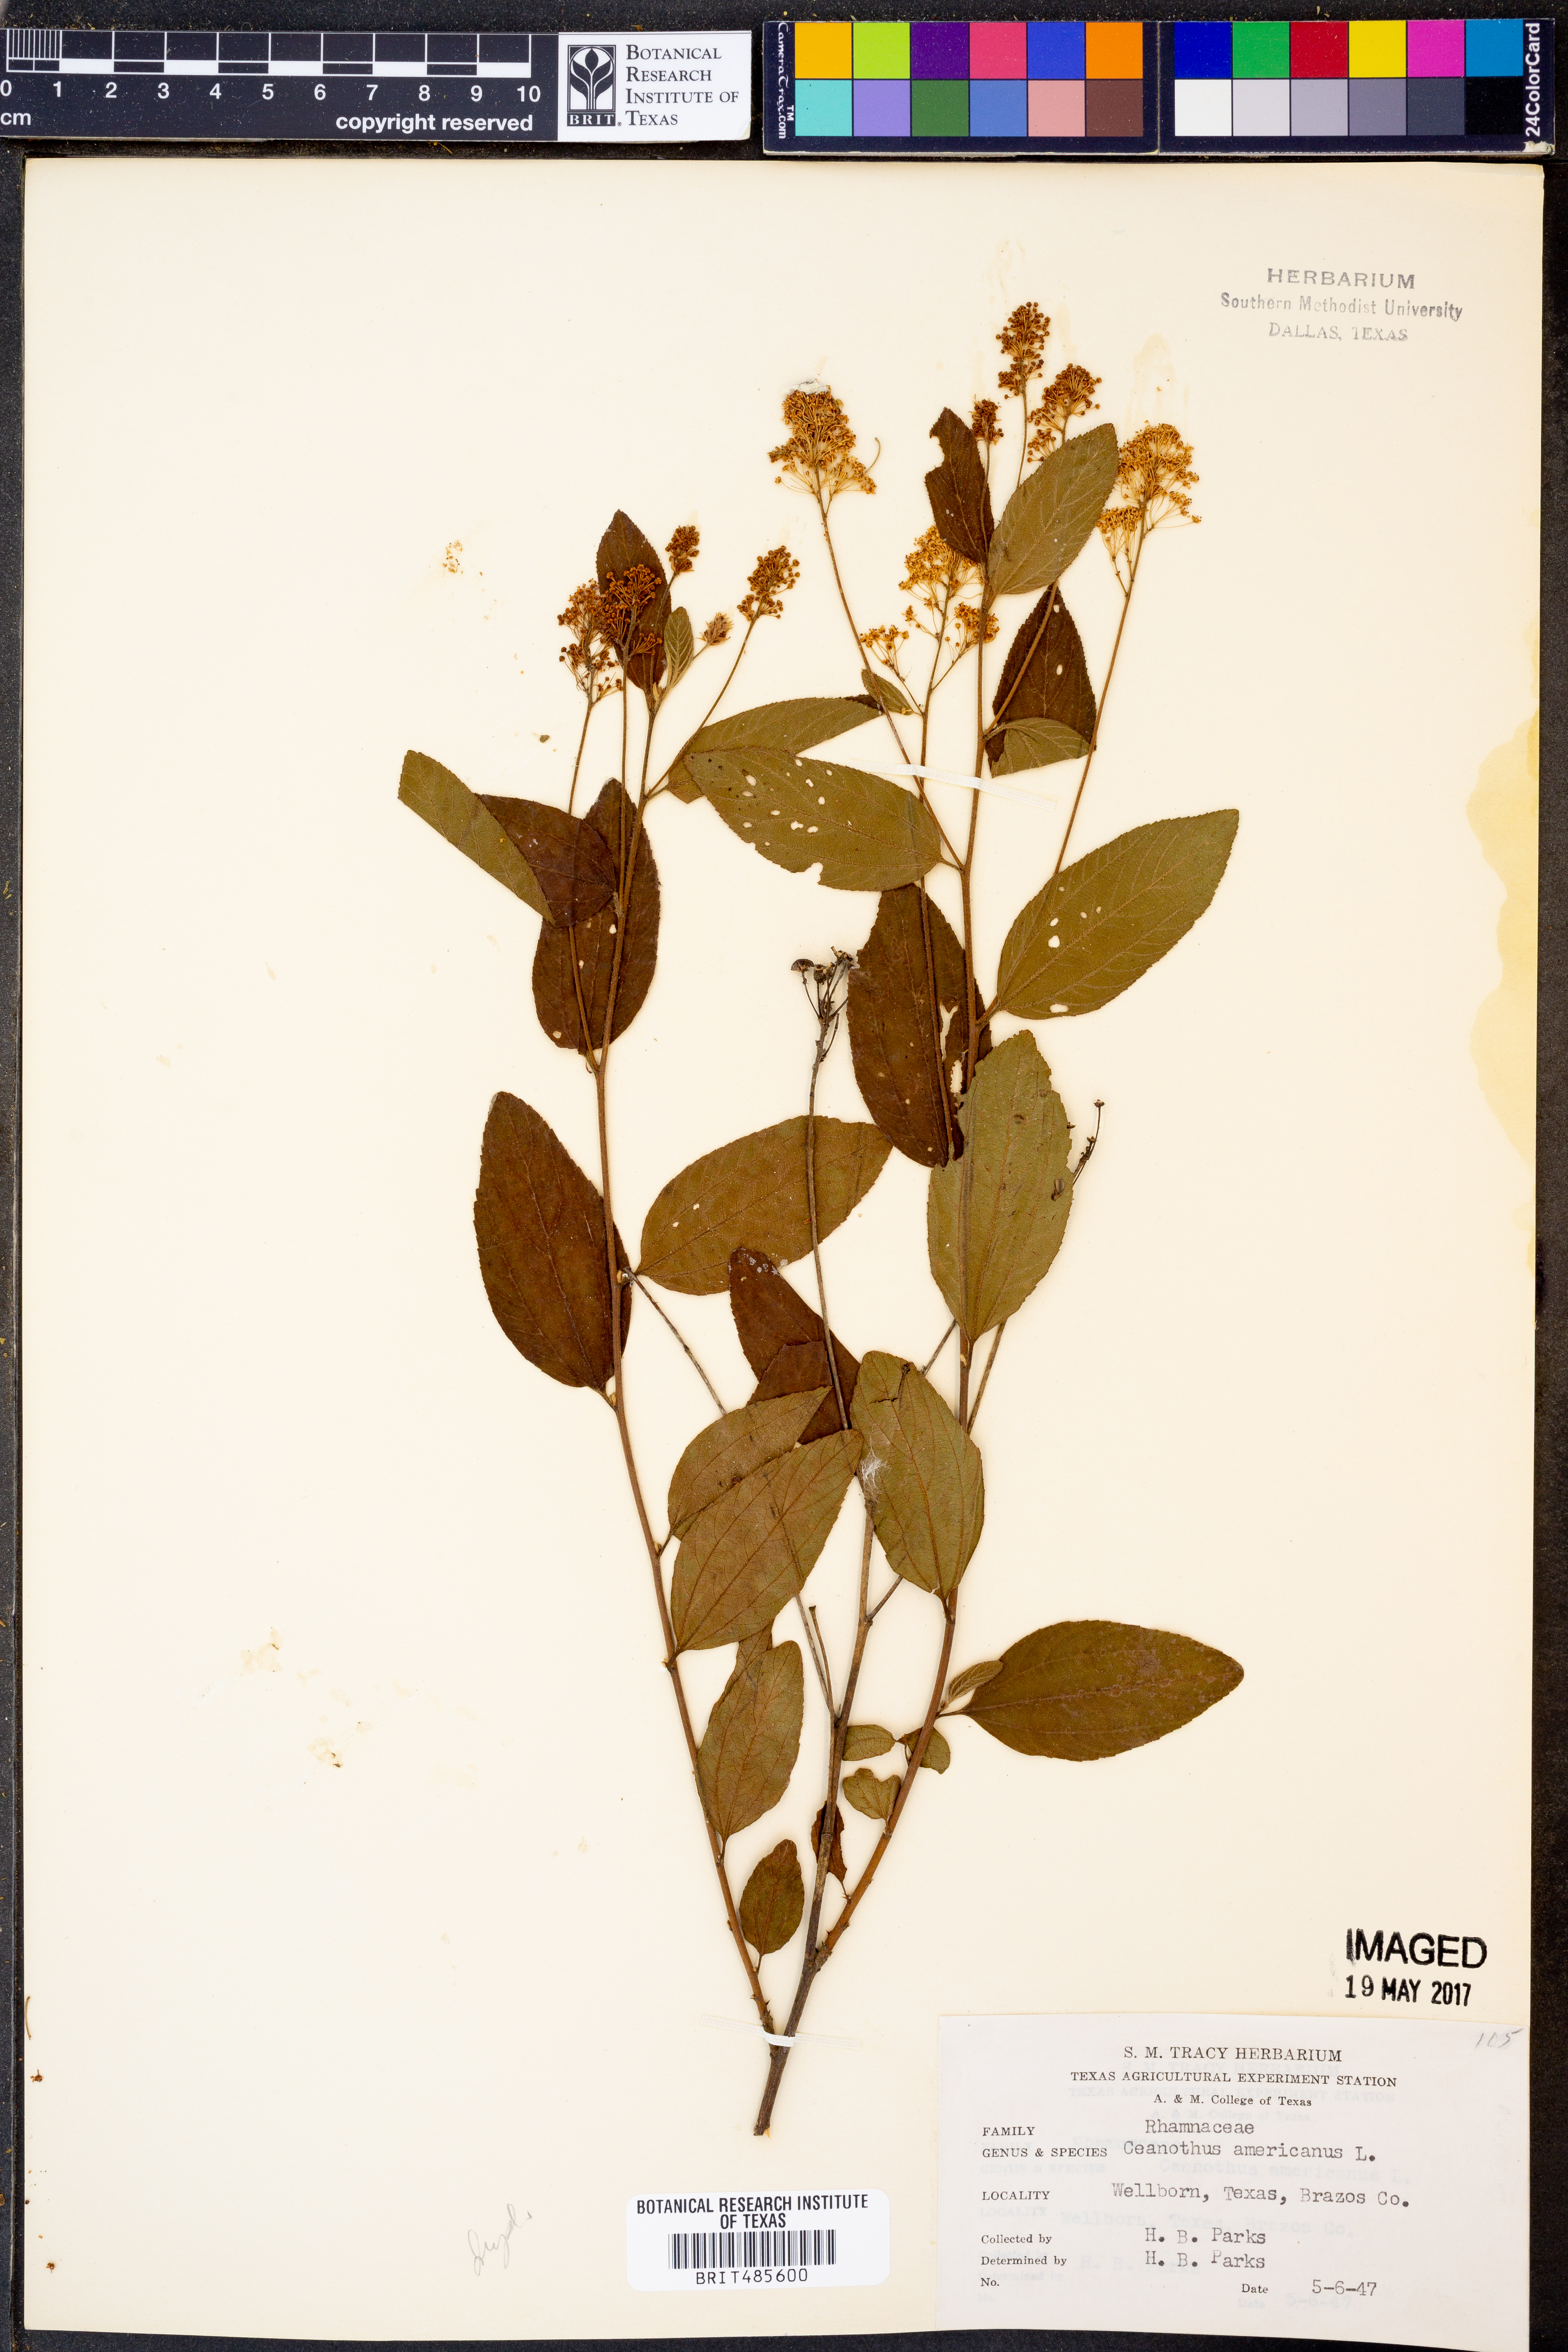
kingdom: Plantae
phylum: Tracheophyta
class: Magnoliopsida
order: Rosales
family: Rhamnaceae
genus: Ceanothus
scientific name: Ceanothus americanus
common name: Redroot
